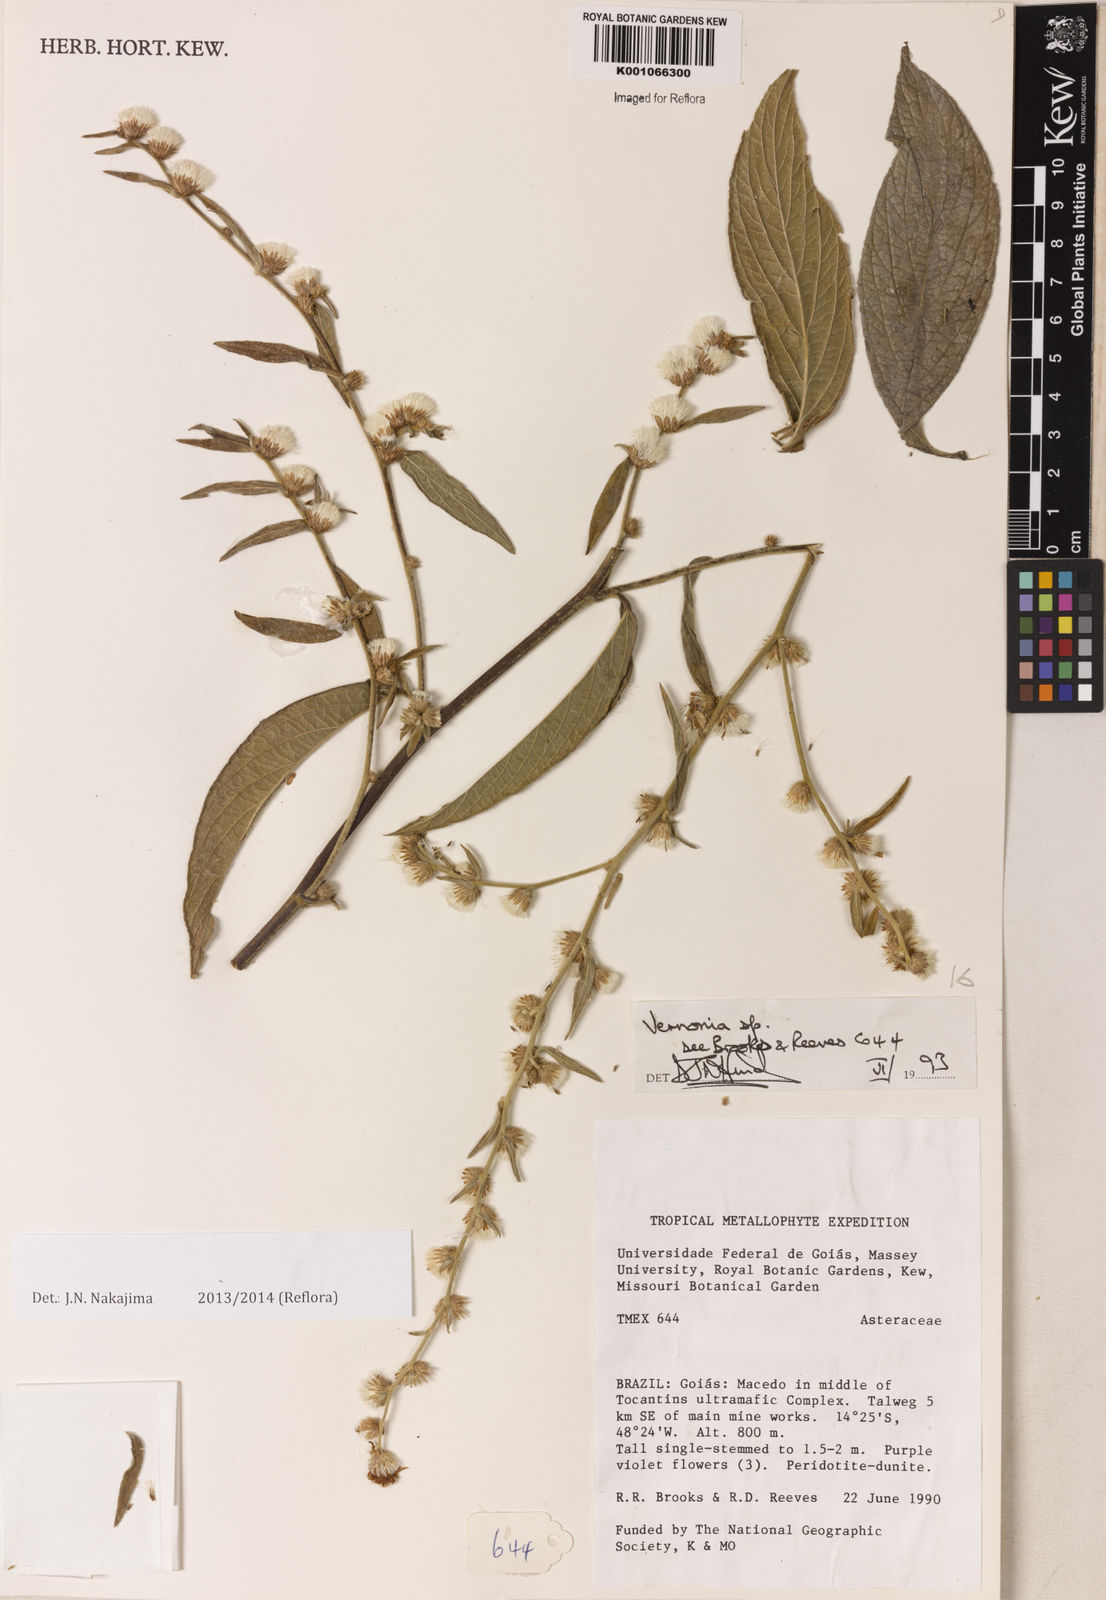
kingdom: Plantae
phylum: Tracheophyta
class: Magnoliopsida
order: Asterales
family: Asteraceae
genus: Vernonia
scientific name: Vernonia
